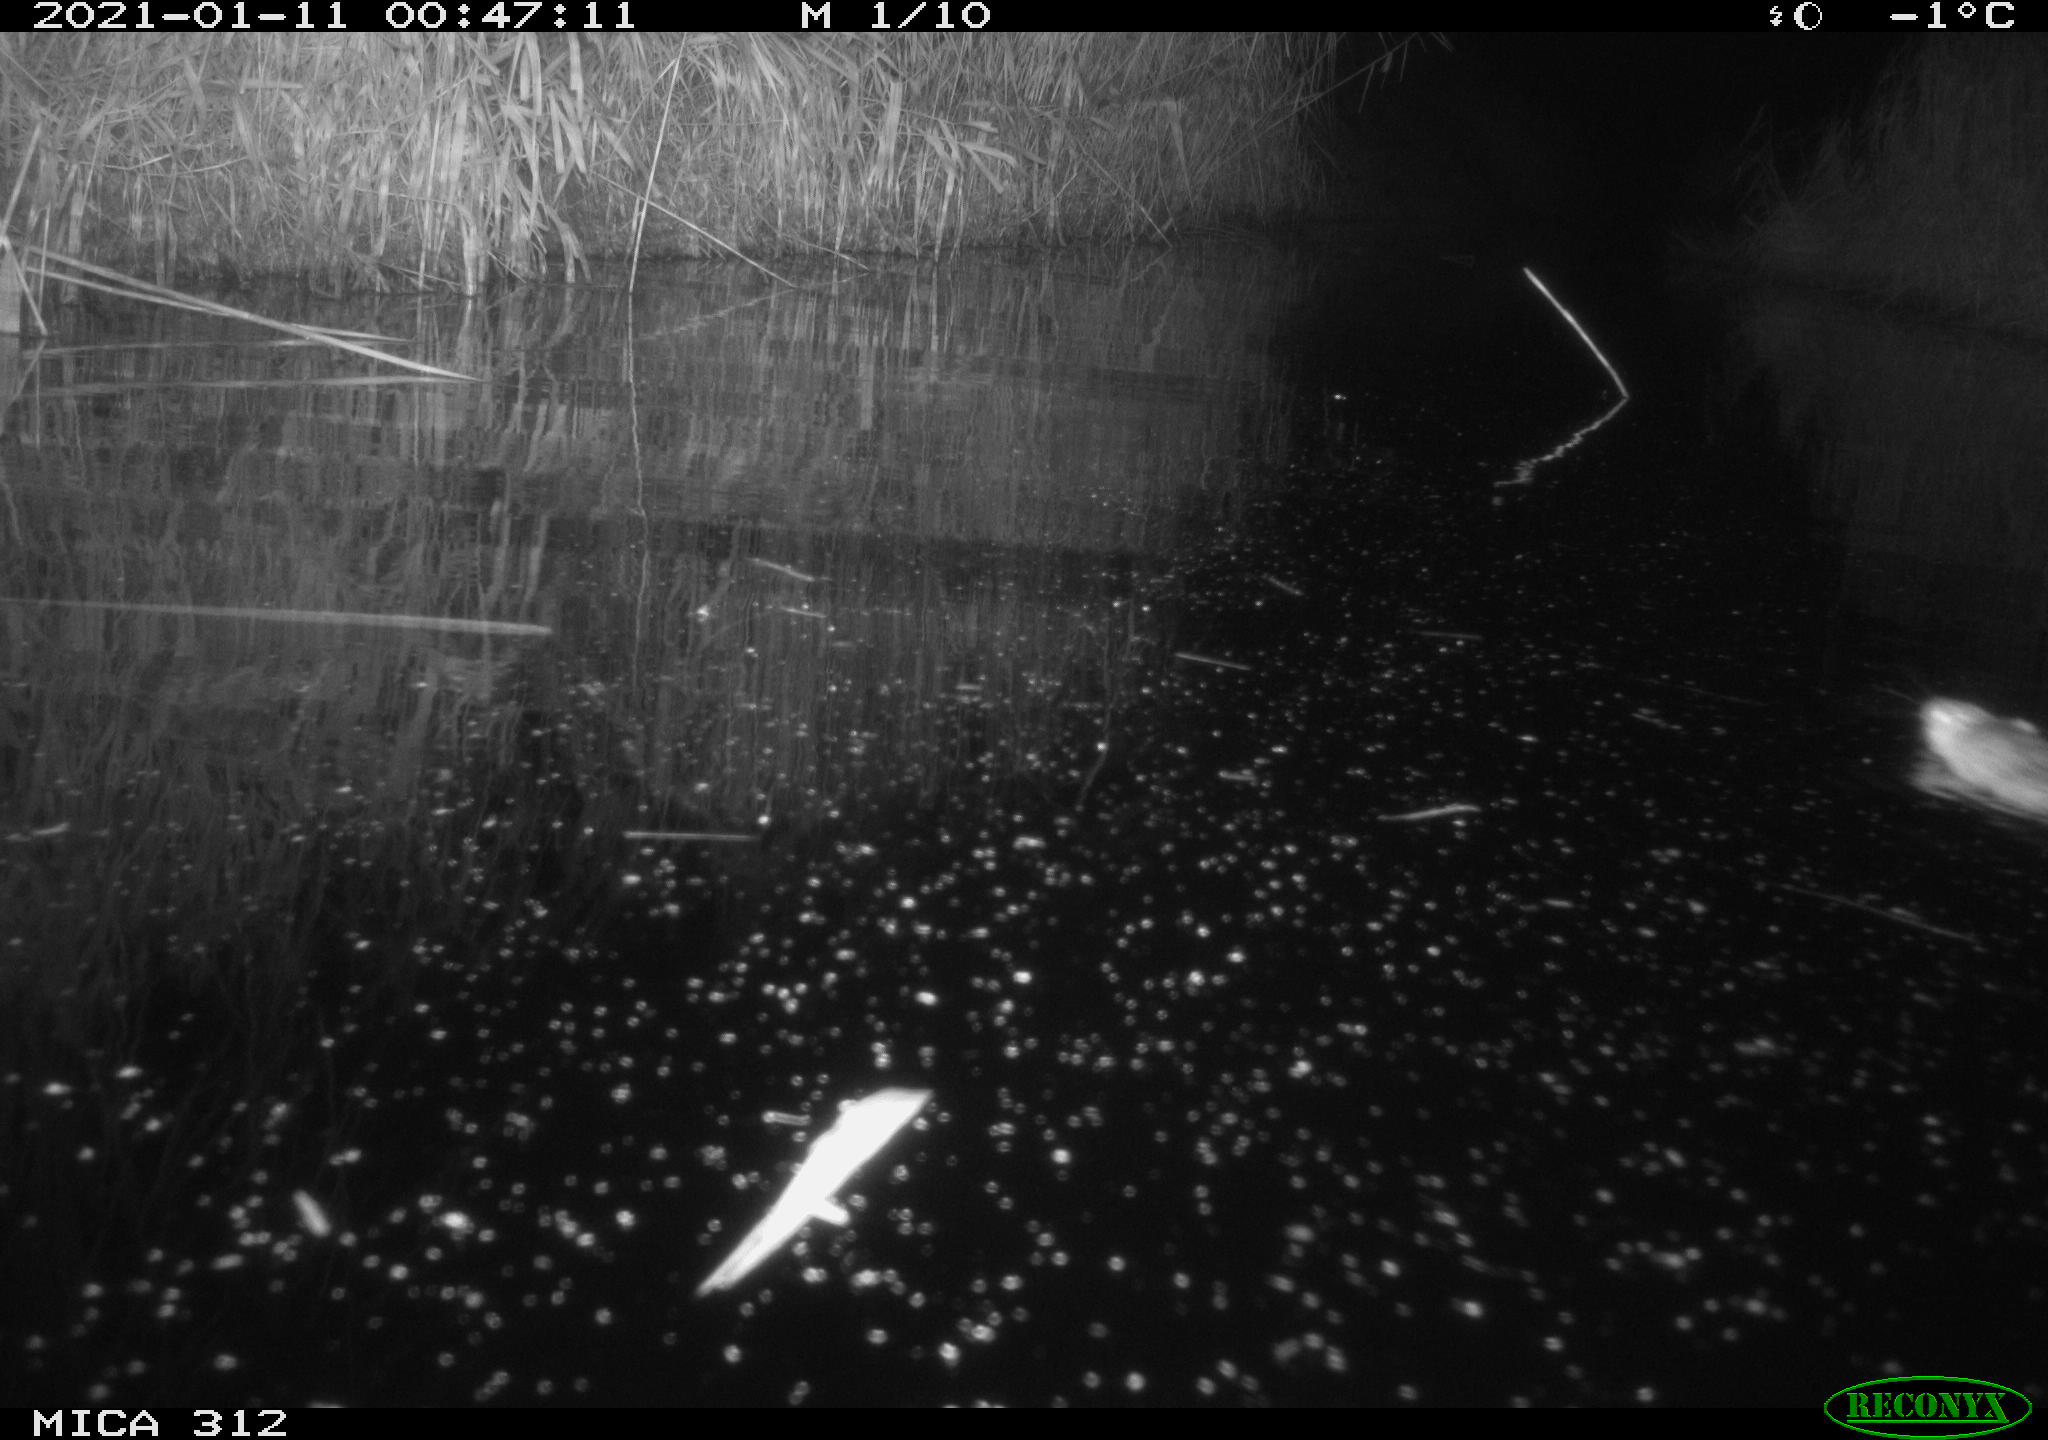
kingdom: Animalia
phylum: Chordata
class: Mammalia
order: Rodentia
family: Muridae
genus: Rattus
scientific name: Rattus norvegicus
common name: Brown rat
